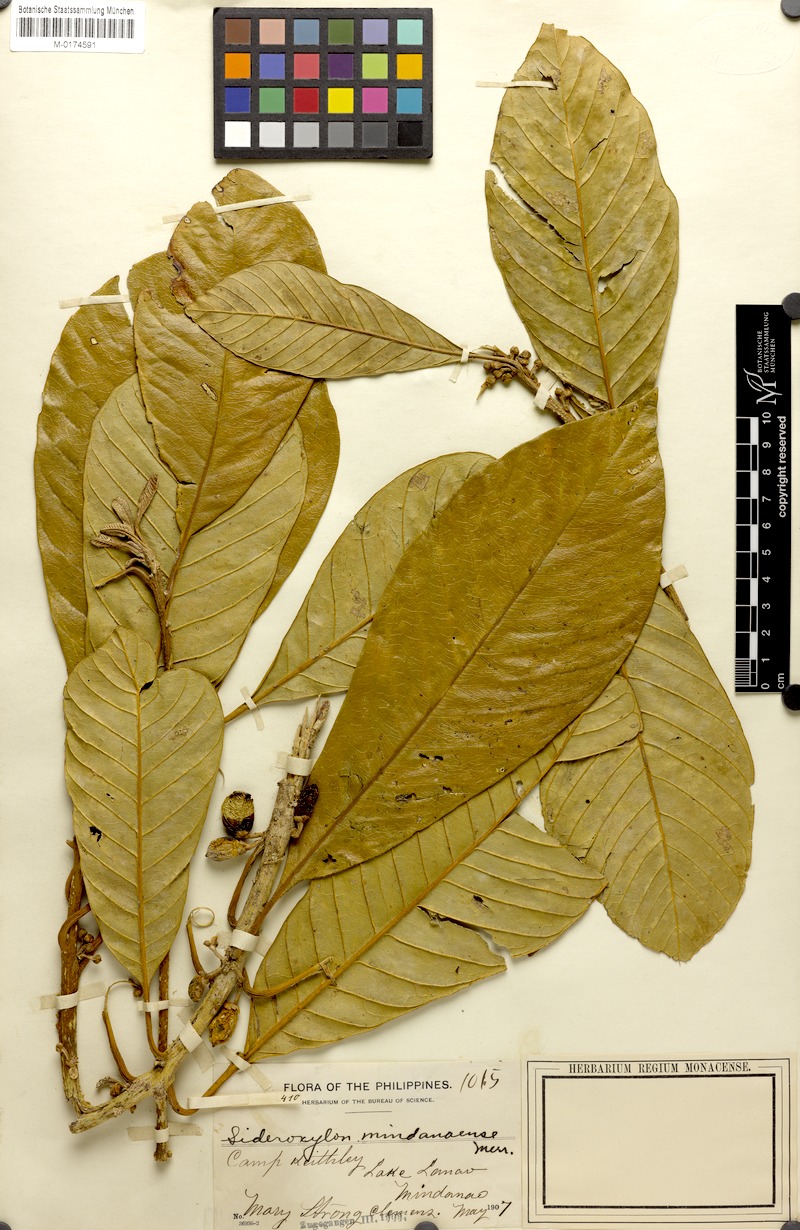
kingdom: Plantae
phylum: Tracheophyta
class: Magnoliopsida
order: Ericales
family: Sapotaceae
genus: Planchonella
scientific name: Planchonella mindanaensis
